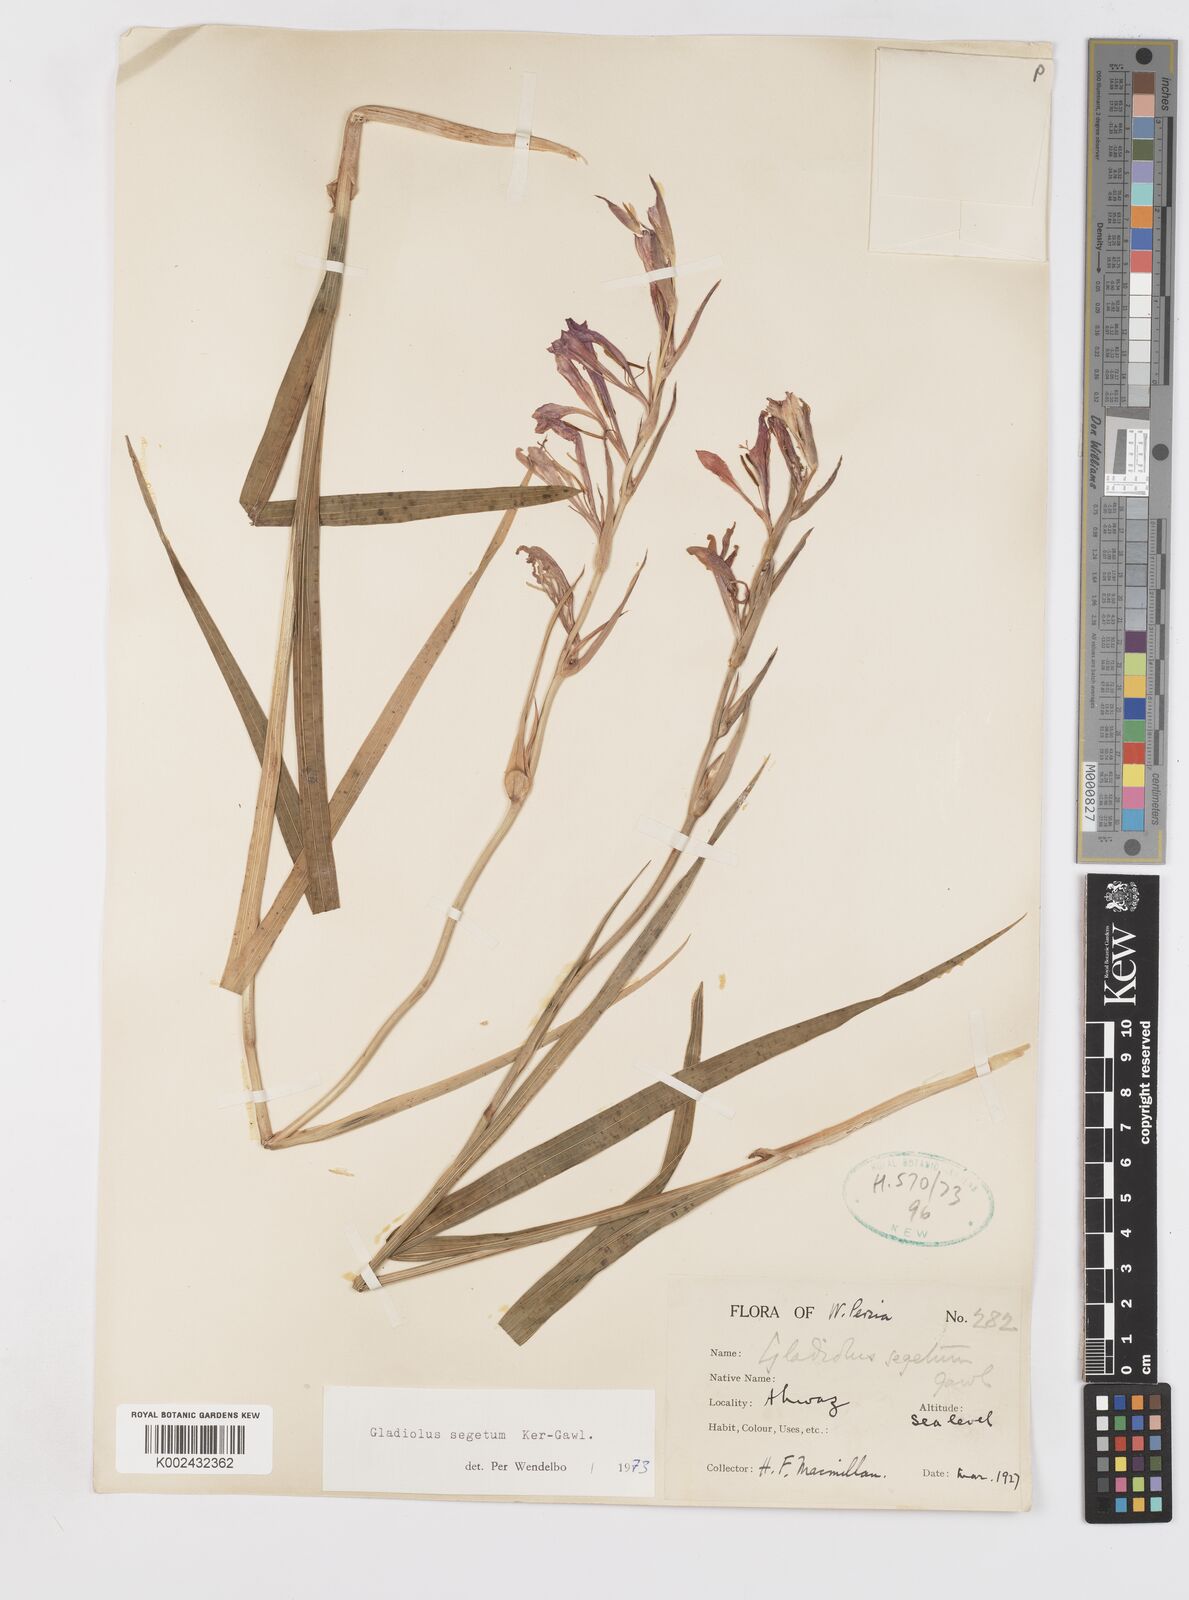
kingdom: Plantae
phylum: Tracheophyta
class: Liliopsida
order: Asparagales
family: Iridaceae
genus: Gladiolus
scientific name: Gladiolus italicus
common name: Field gladiolus
